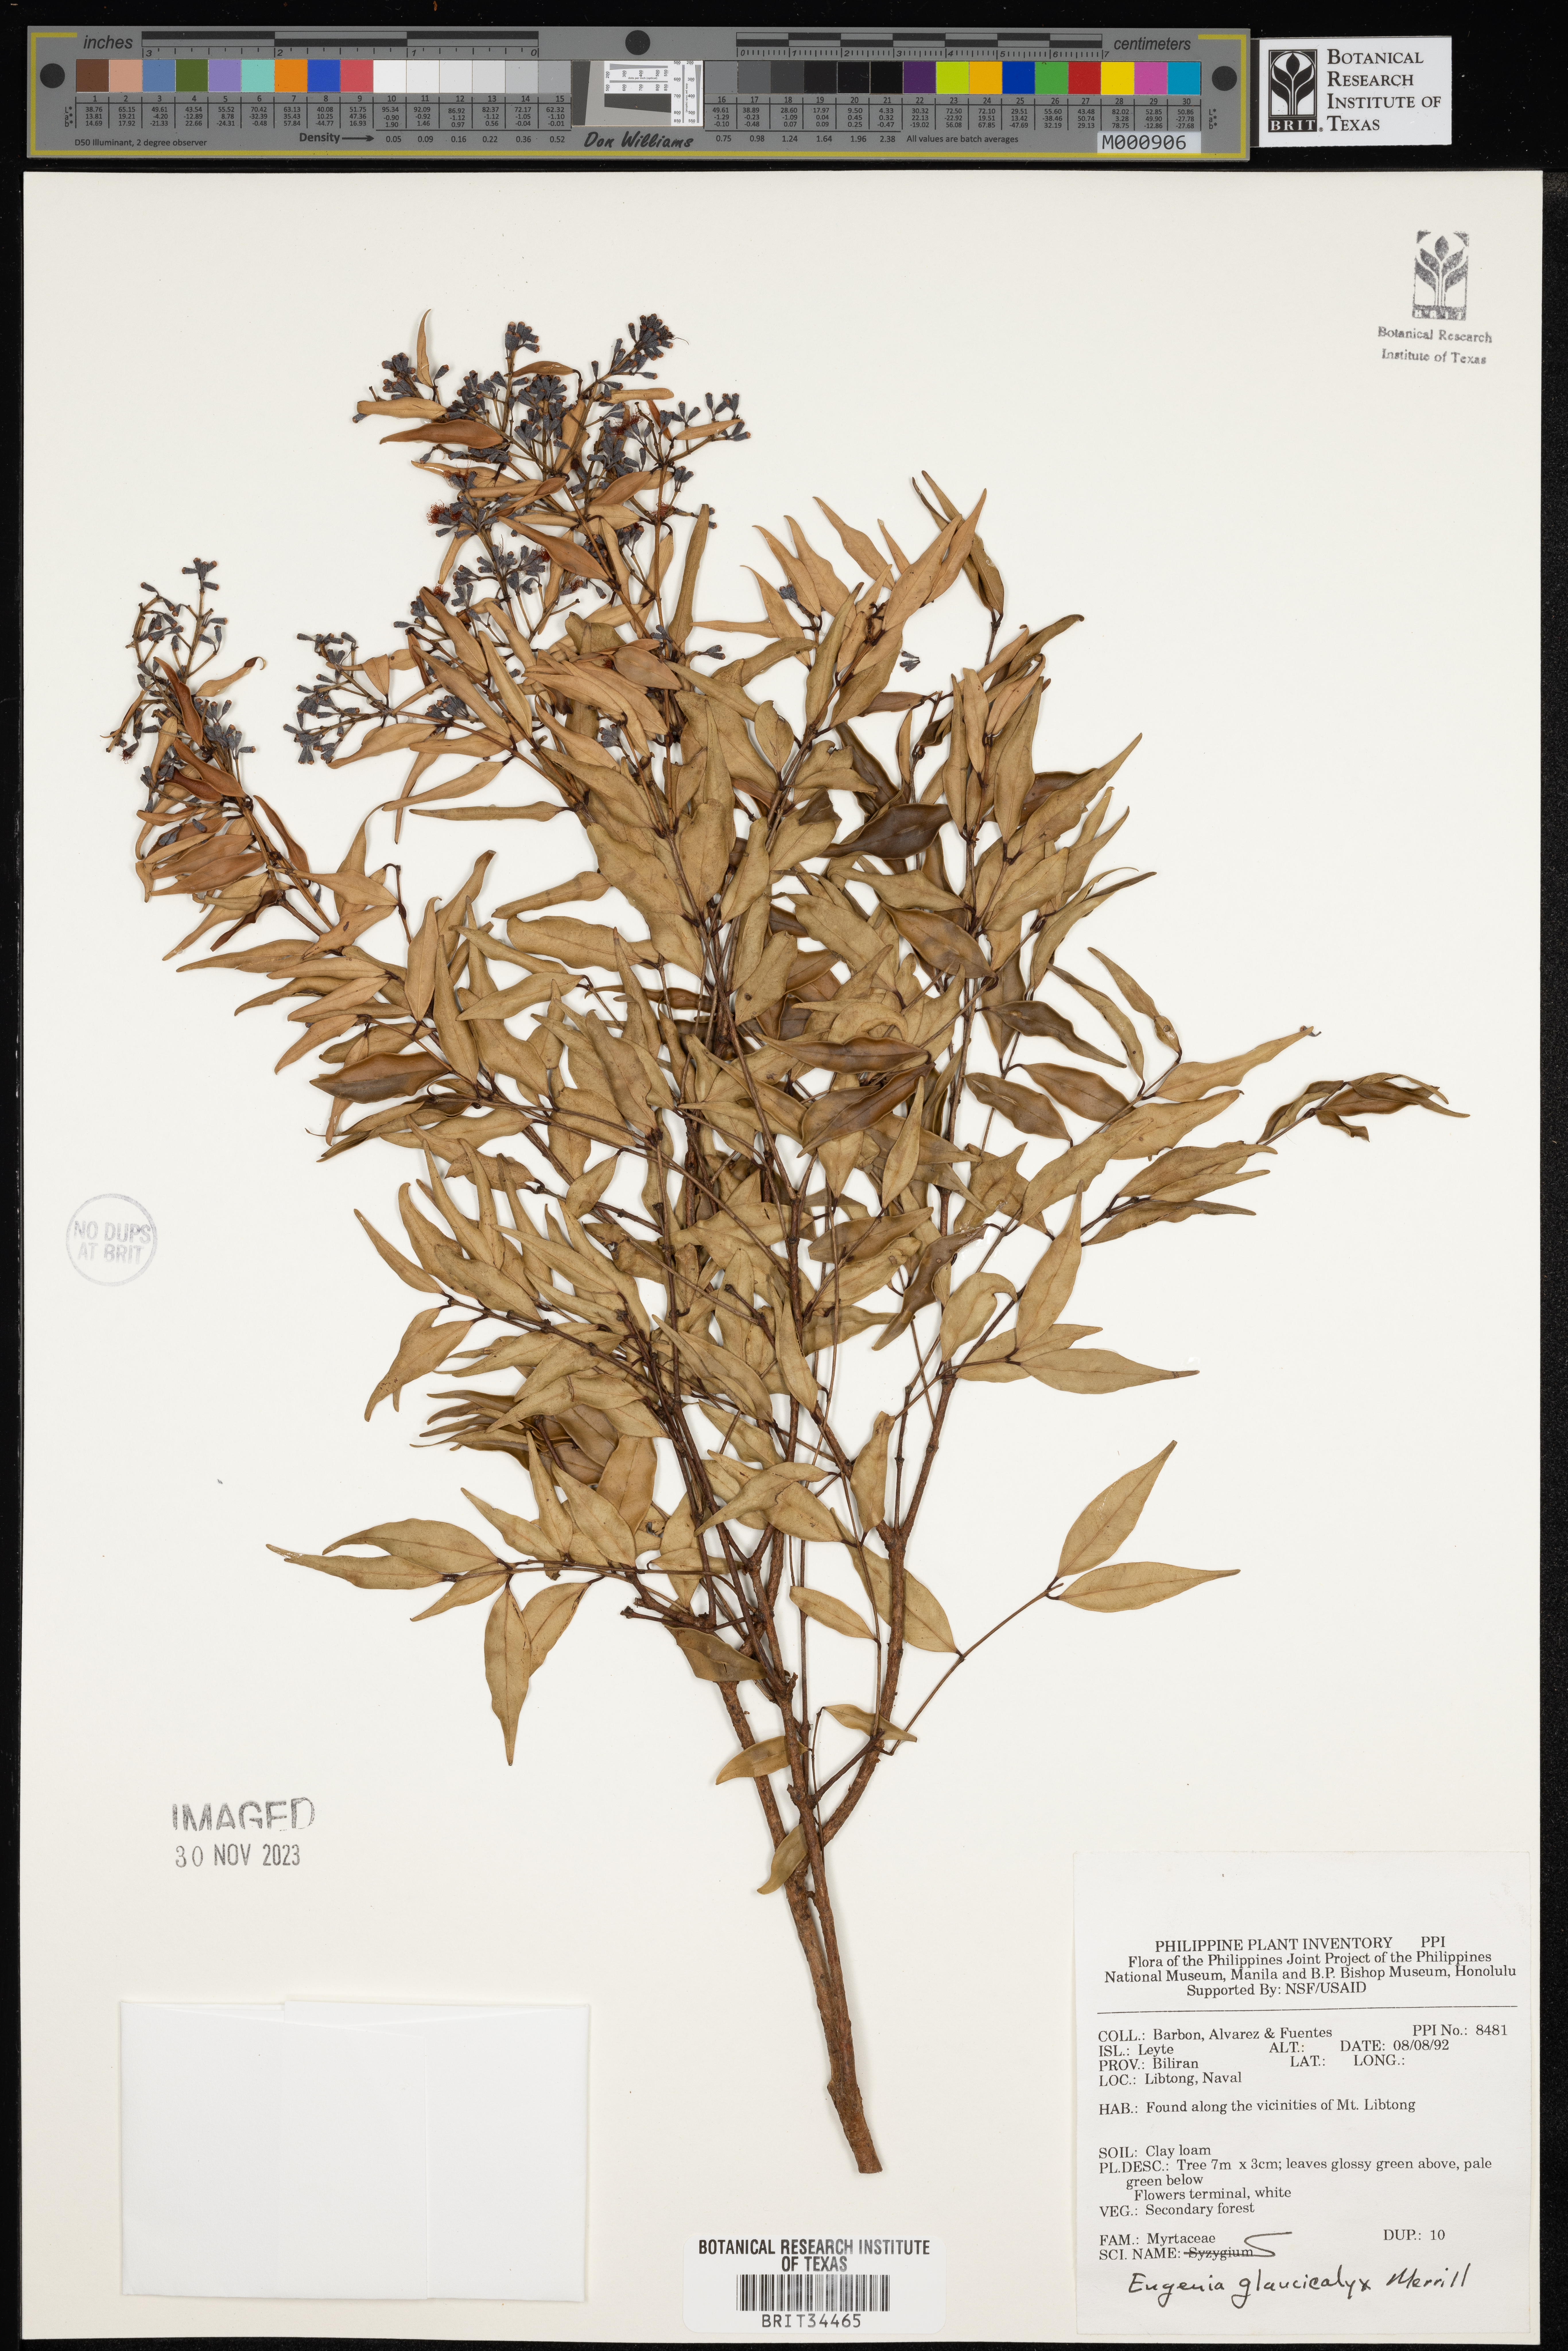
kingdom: Plantae
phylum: Tracheophyta
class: Magnoliopsida
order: Myrtales
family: Myrtaceae
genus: Syzygium
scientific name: Syzygium antisepticum
